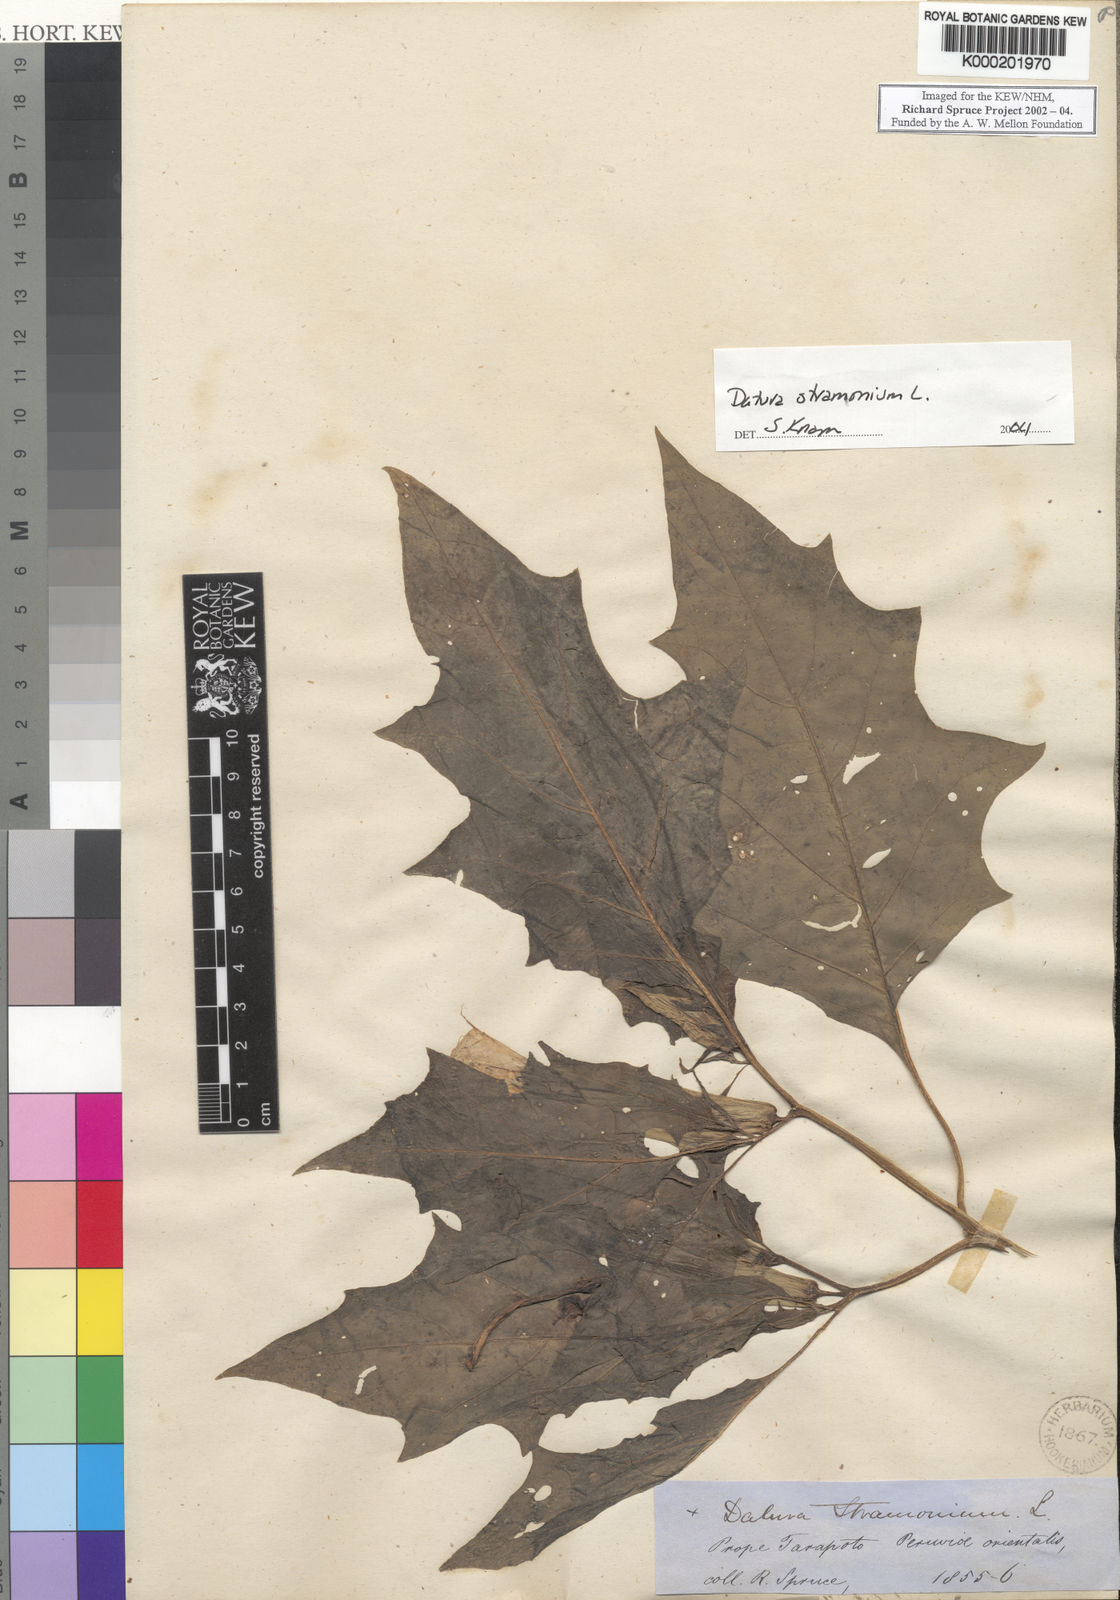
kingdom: Plantae
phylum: Tracheophyta
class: Magnoliopsida
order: Solanales
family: Solanaceae
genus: Datura
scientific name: Datura stramonium
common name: Thorn-apple
